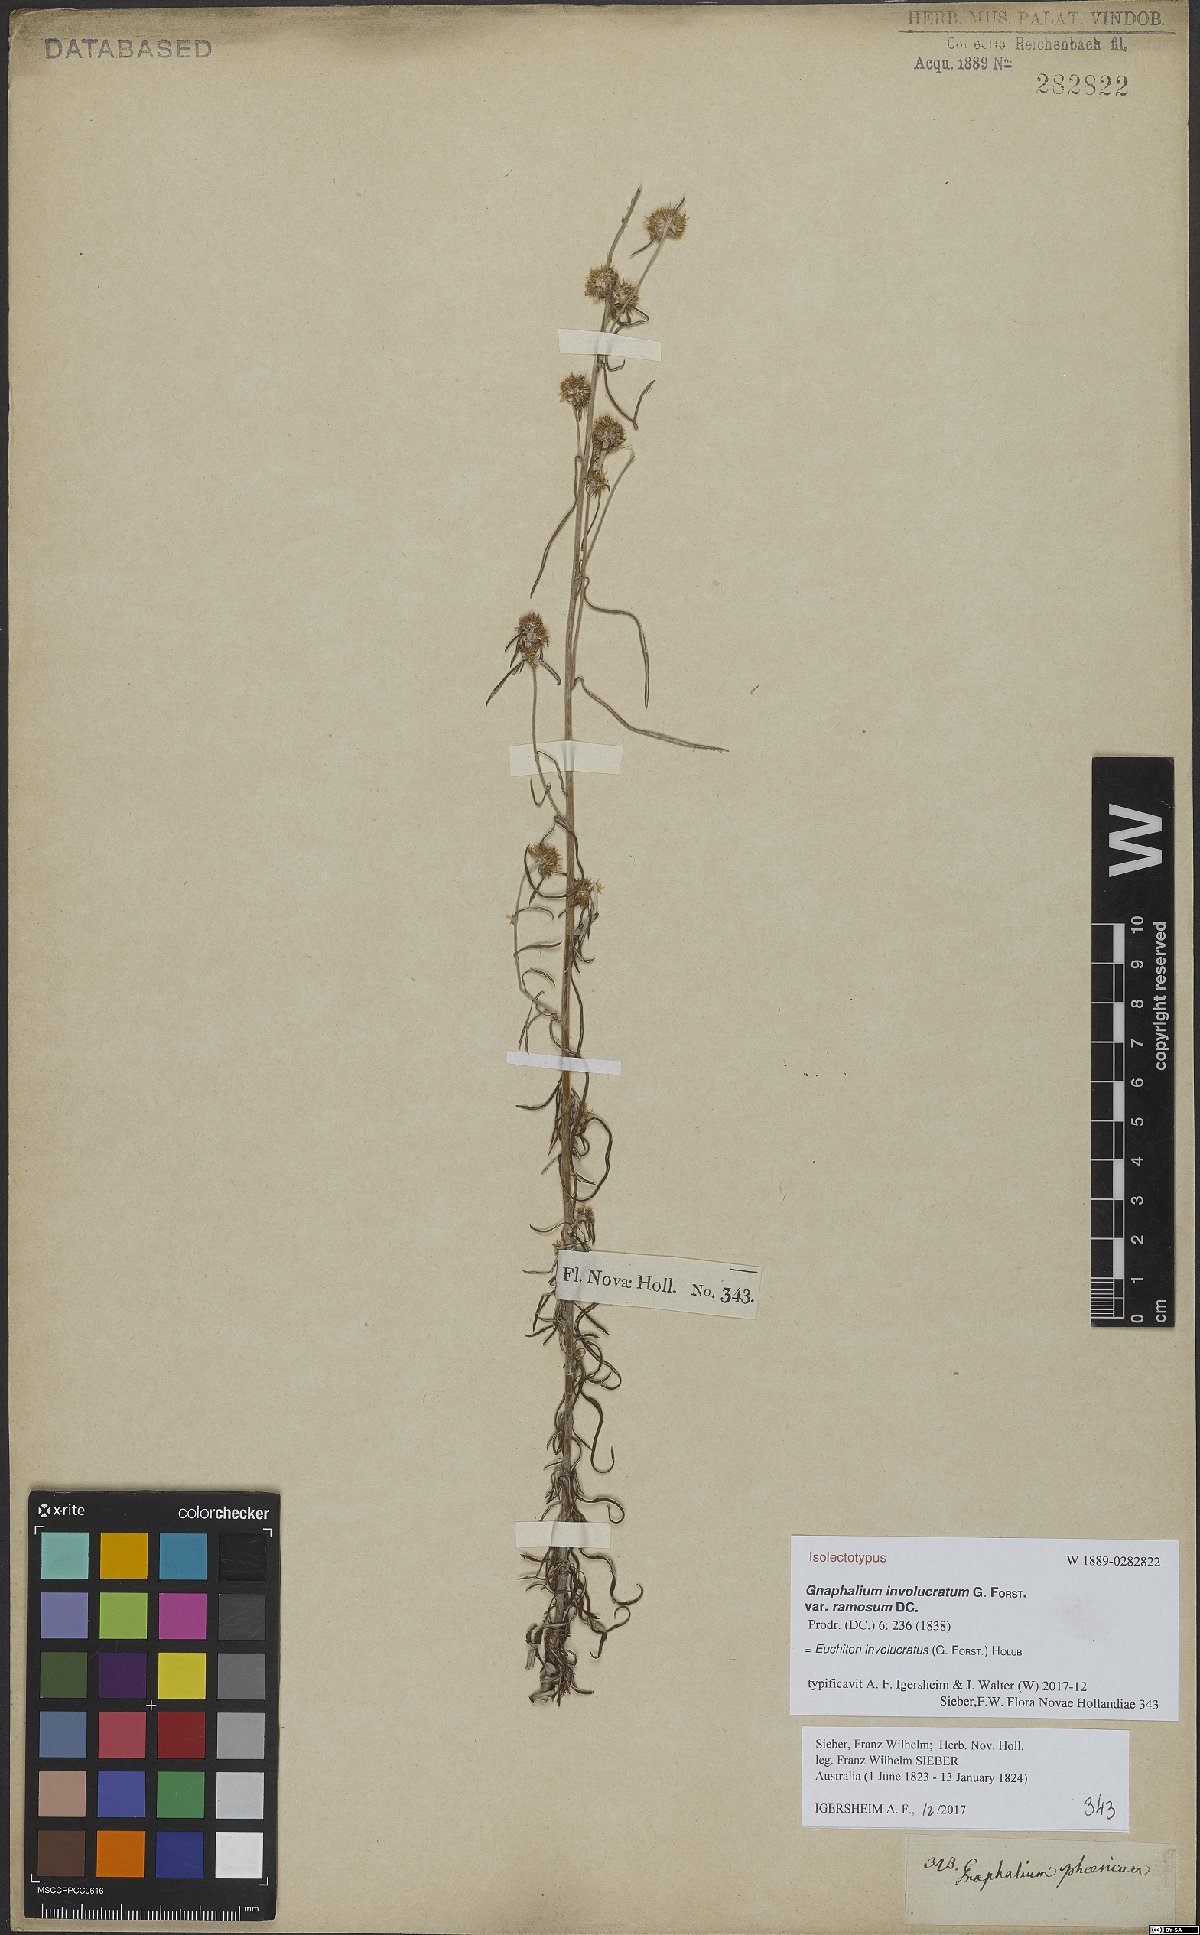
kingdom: Plantae
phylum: Tracheophyta
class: Magnoliopsida
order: Asterales
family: Asteraceae
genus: Euchiton
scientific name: Euchiton involucratus
